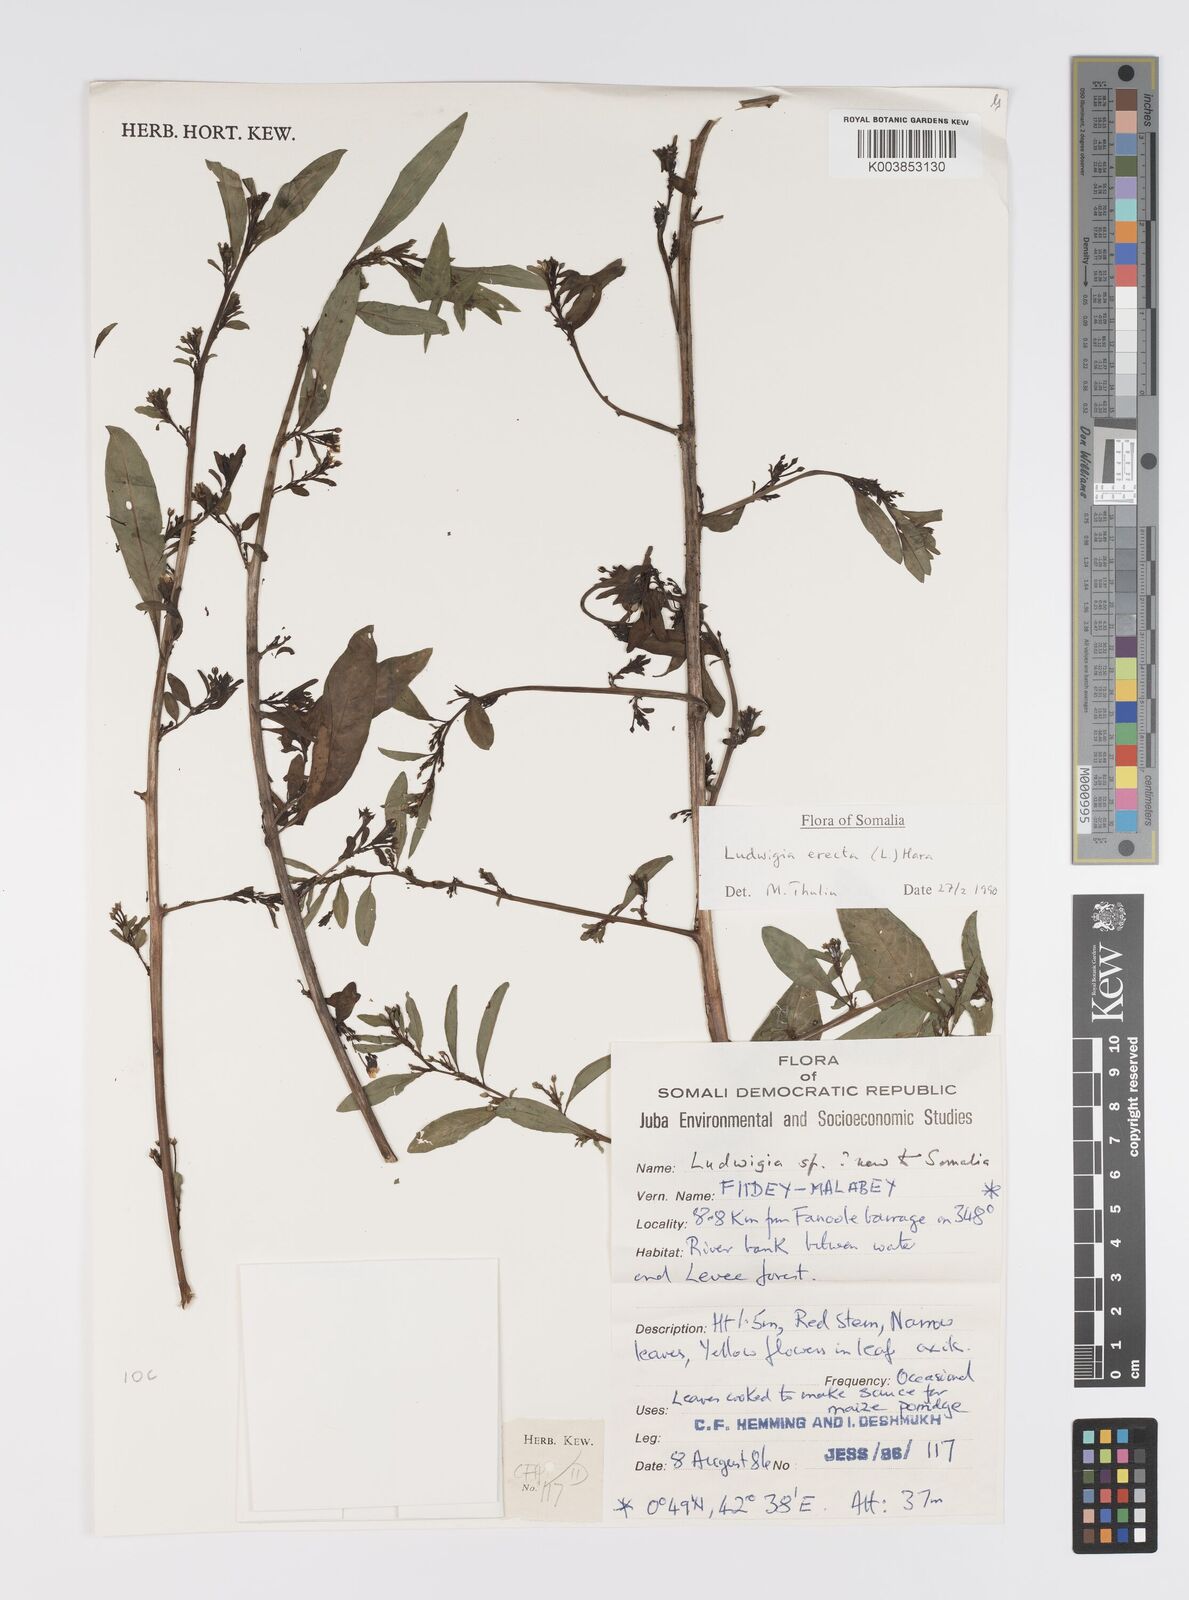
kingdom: Plantae
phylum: Tracheophyta
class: Magnoliopsida
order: Myrtales
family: Onagraceae
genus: Ludwigia
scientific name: Ludwigia erecta
